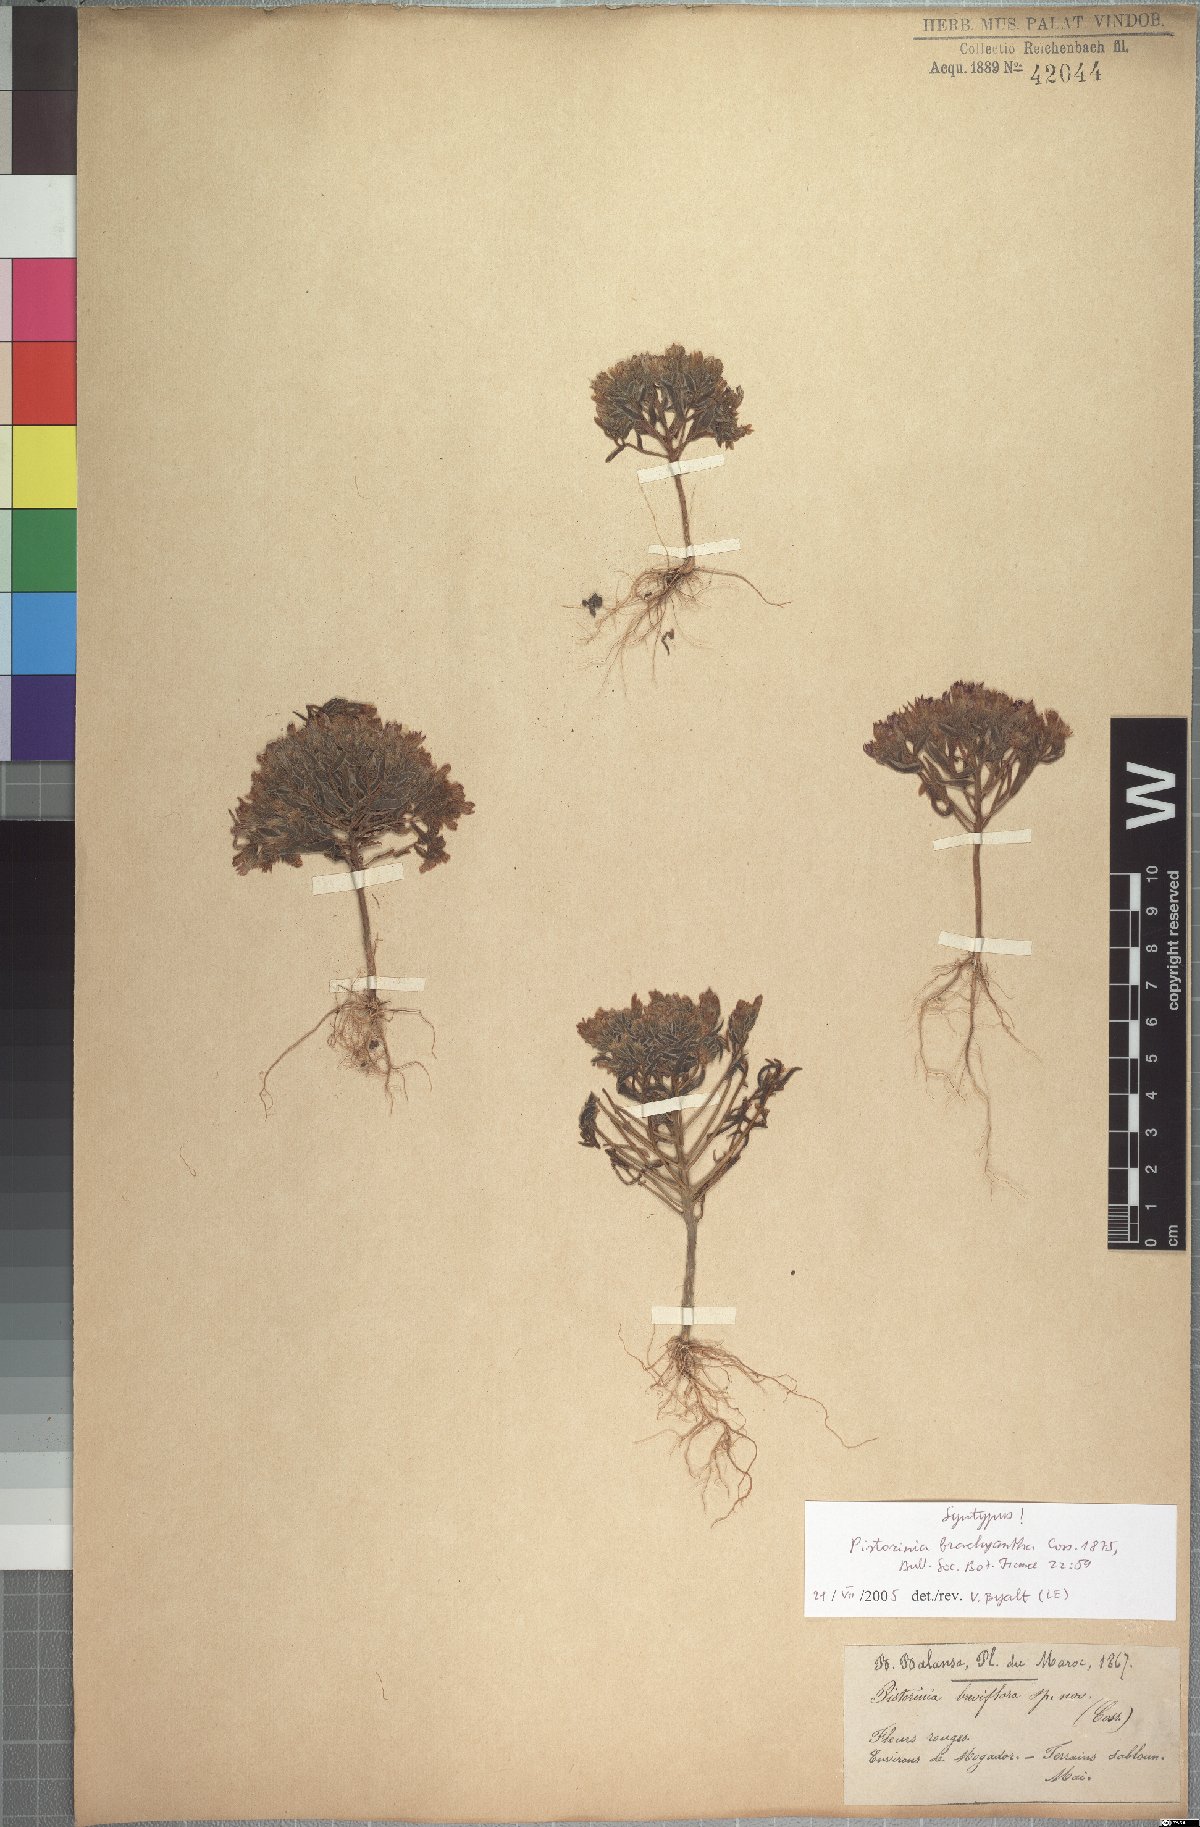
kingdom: Plantae
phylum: Tracheophyta
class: Magnoliopsida
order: Saxifragales
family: Crassulaceae
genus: Pistorinia
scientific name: Pistorinia brachyantha
